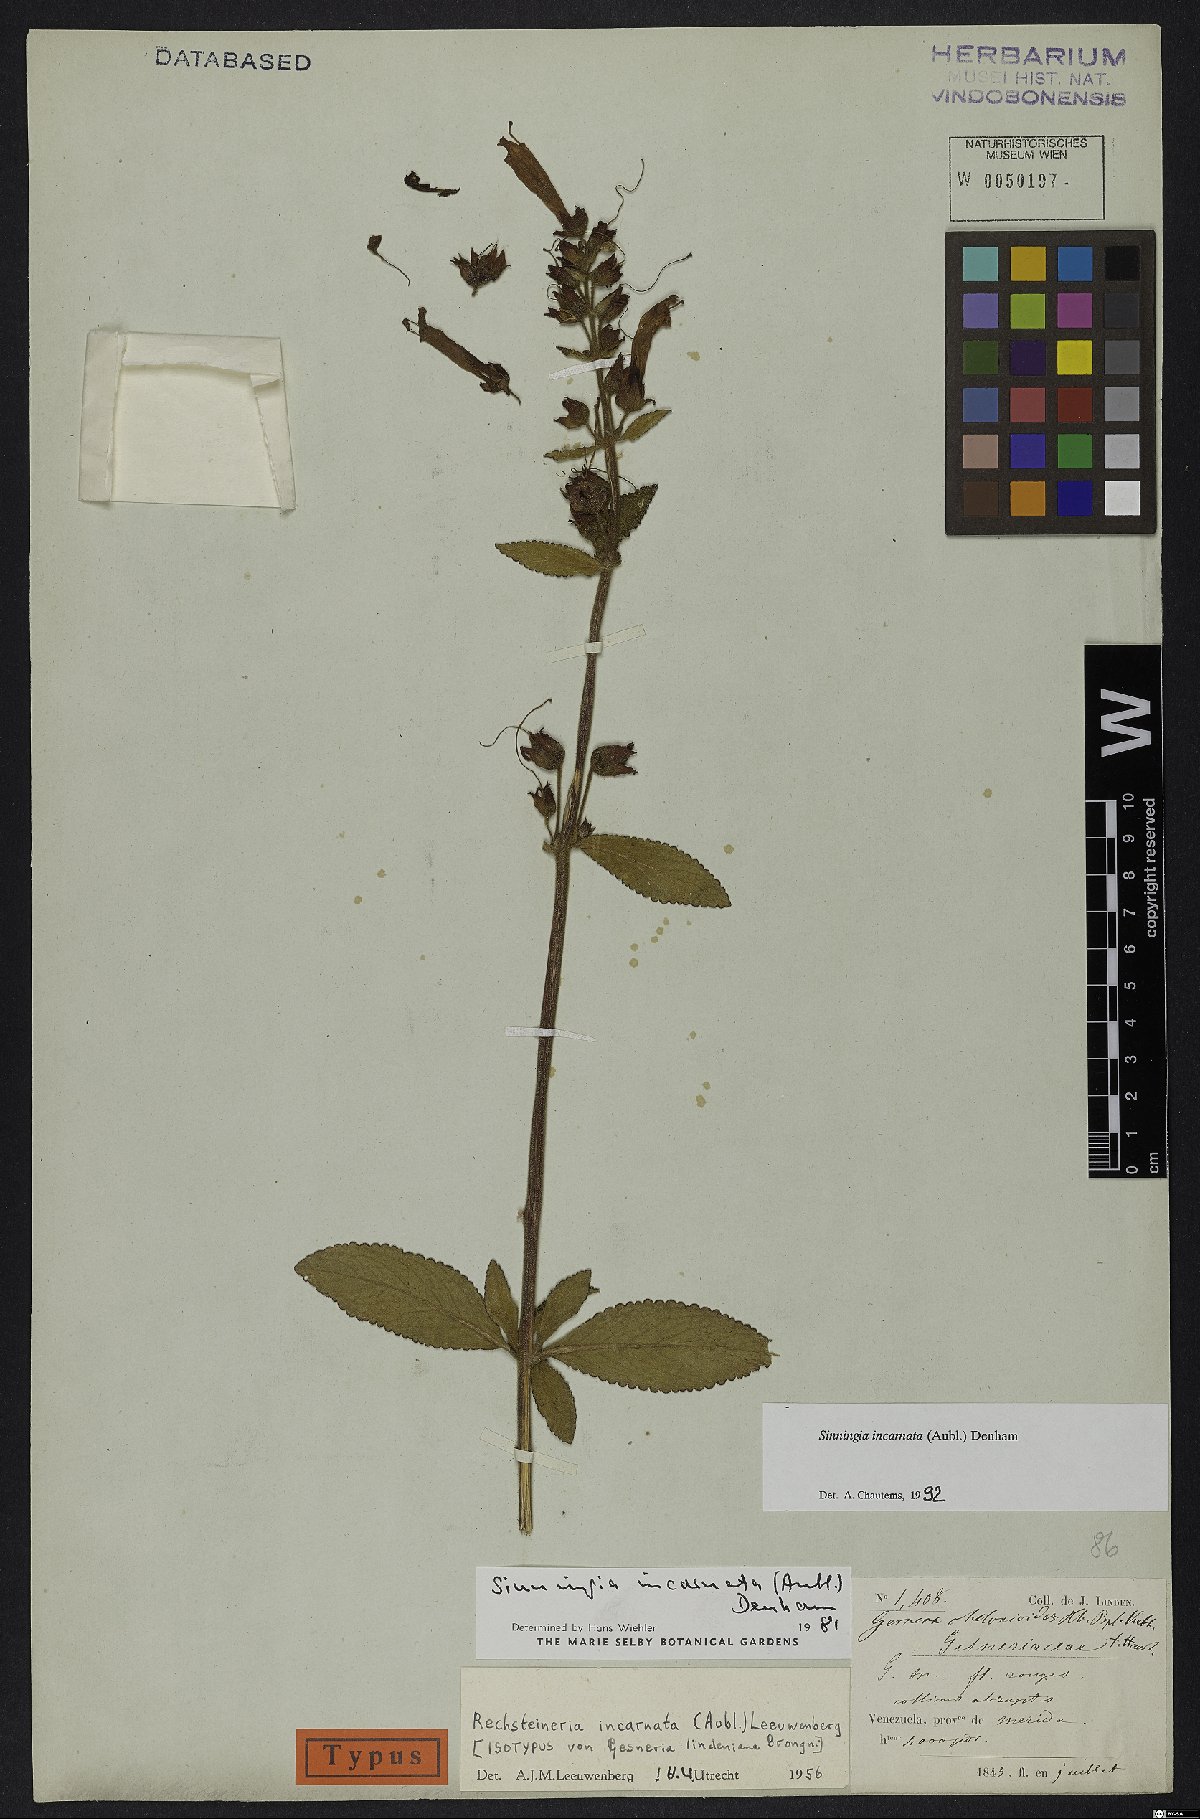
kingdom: Plantae
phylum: Tracheophyta
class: Magnoliopsida
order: Lamiales
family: Gesneriaceae
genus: Sinningia
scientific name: Sinningia incarnata
